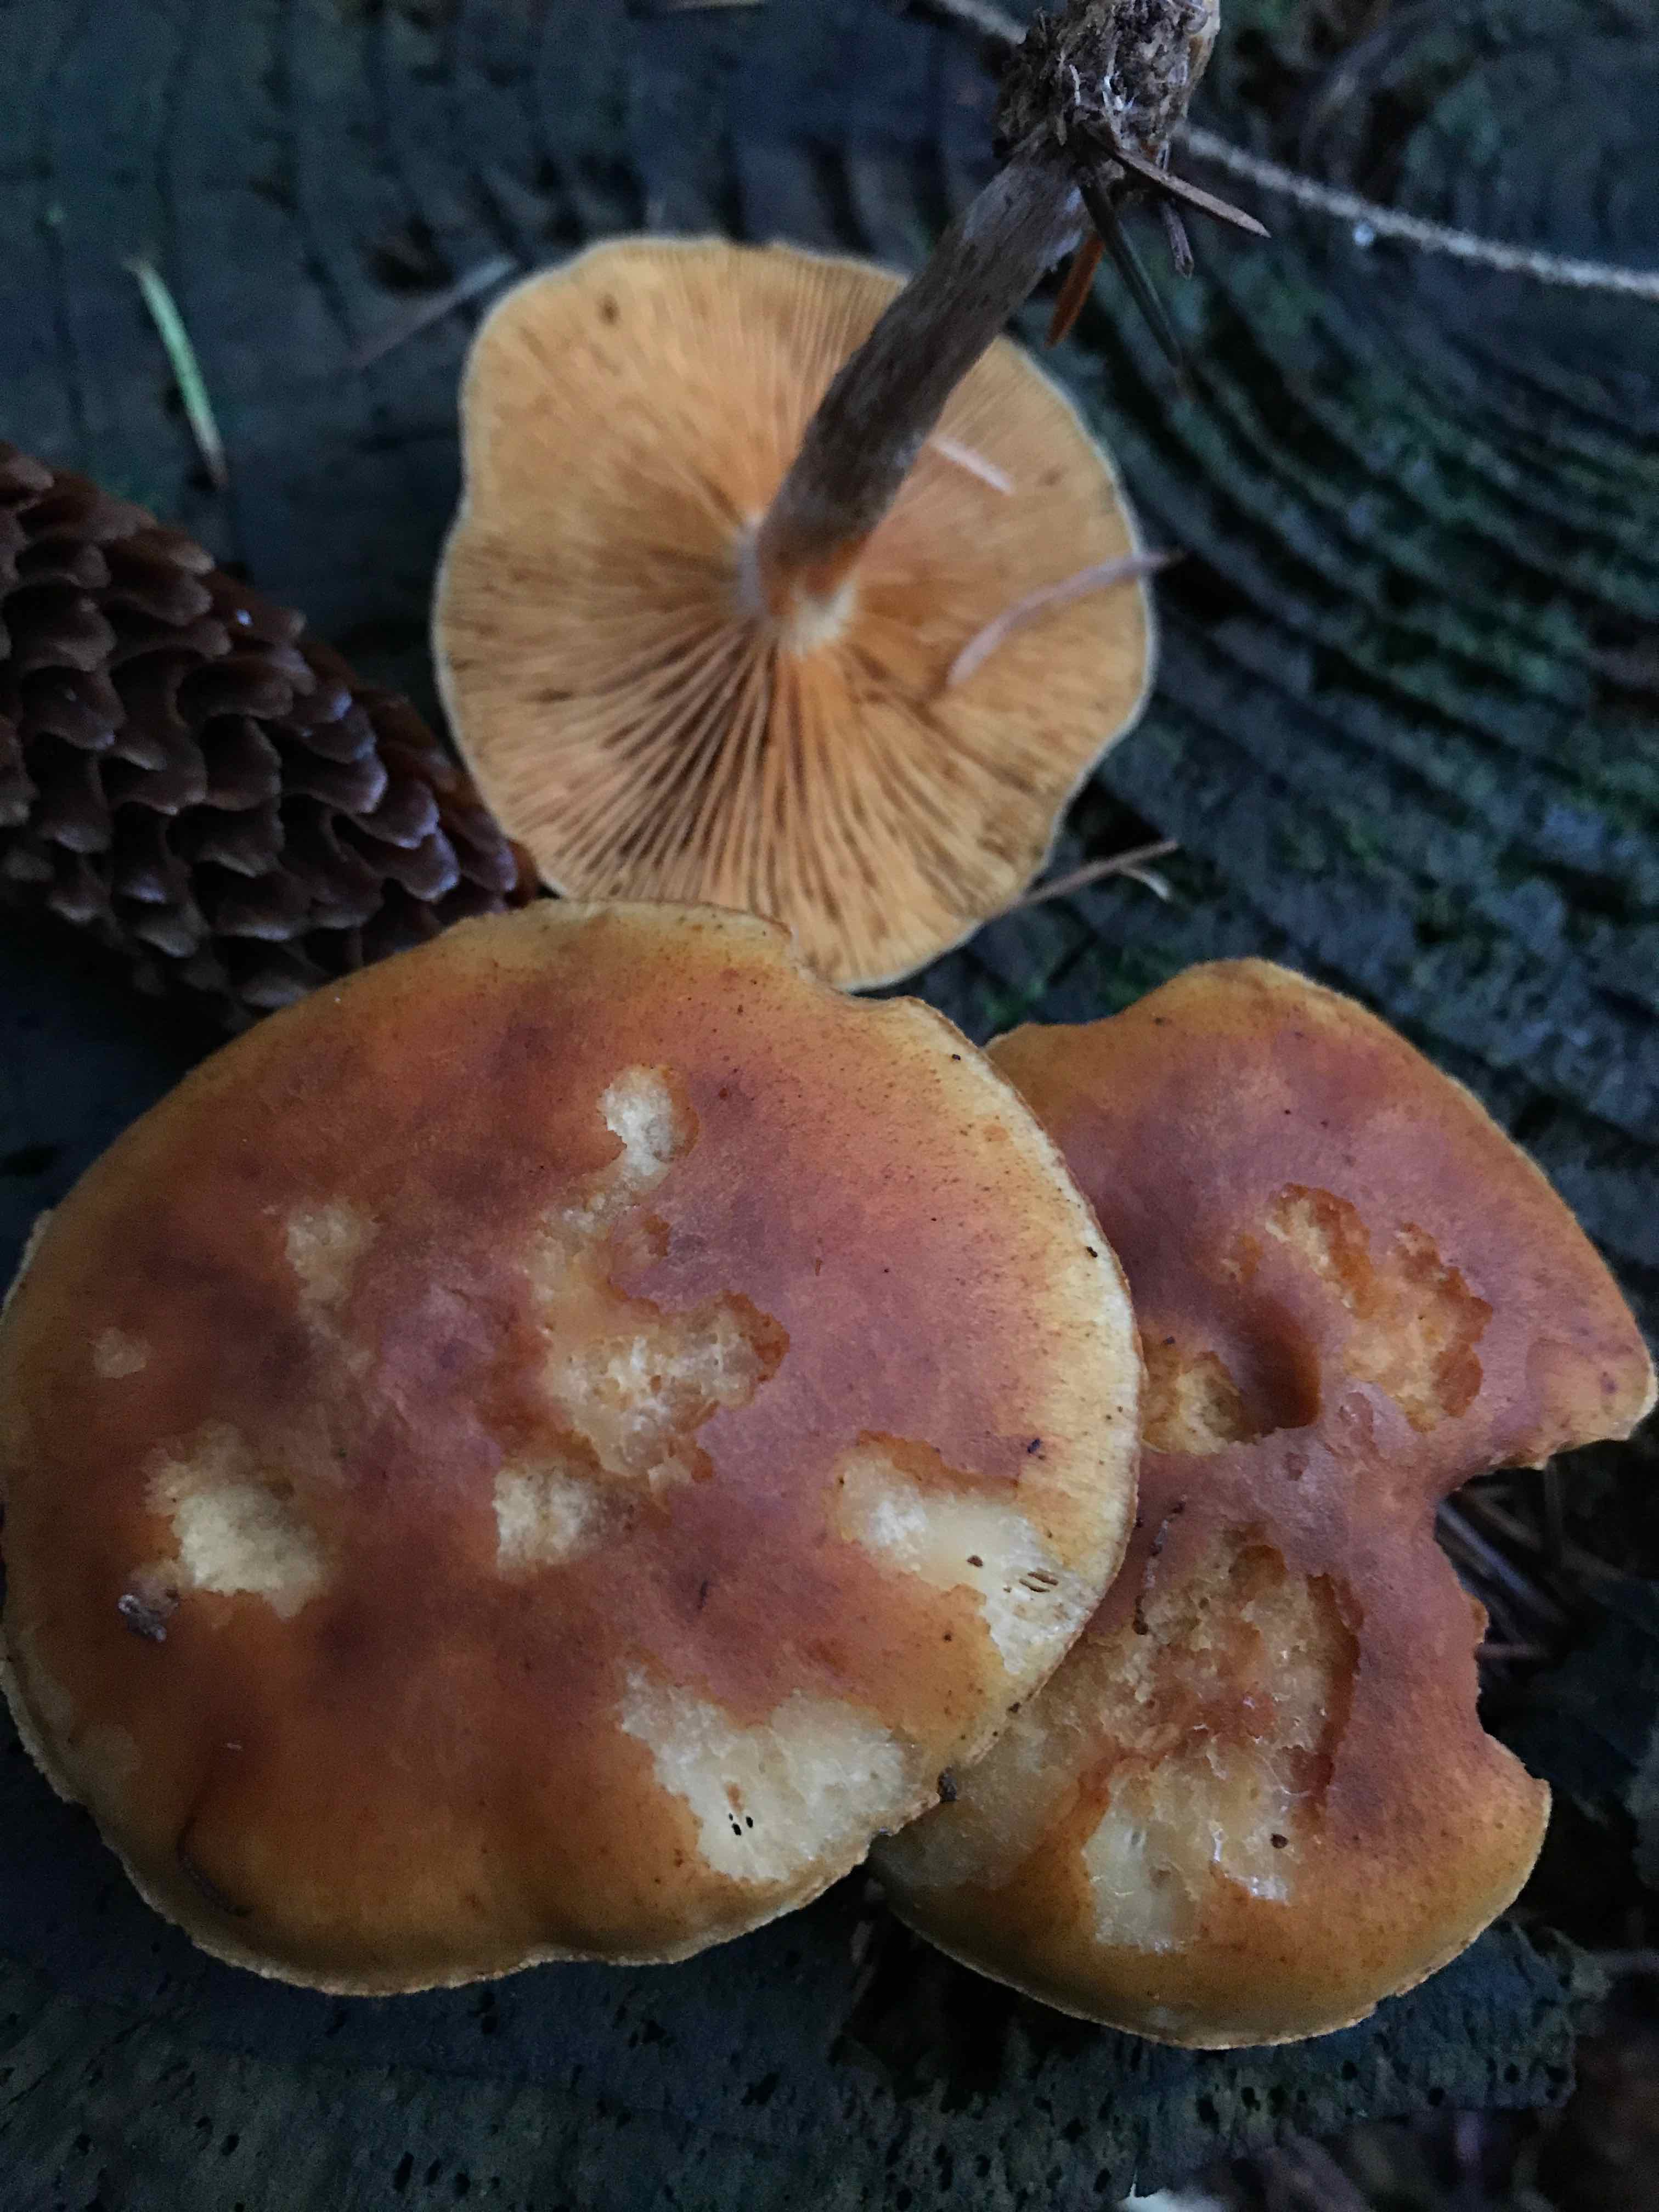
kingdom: Fungi
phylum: Basidiomycota
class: Agaricomycetes
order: Agaricales
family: Hymenogastraceae
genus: Galerina
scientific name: Galerina marginata
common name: randbæltet hjelmhat
